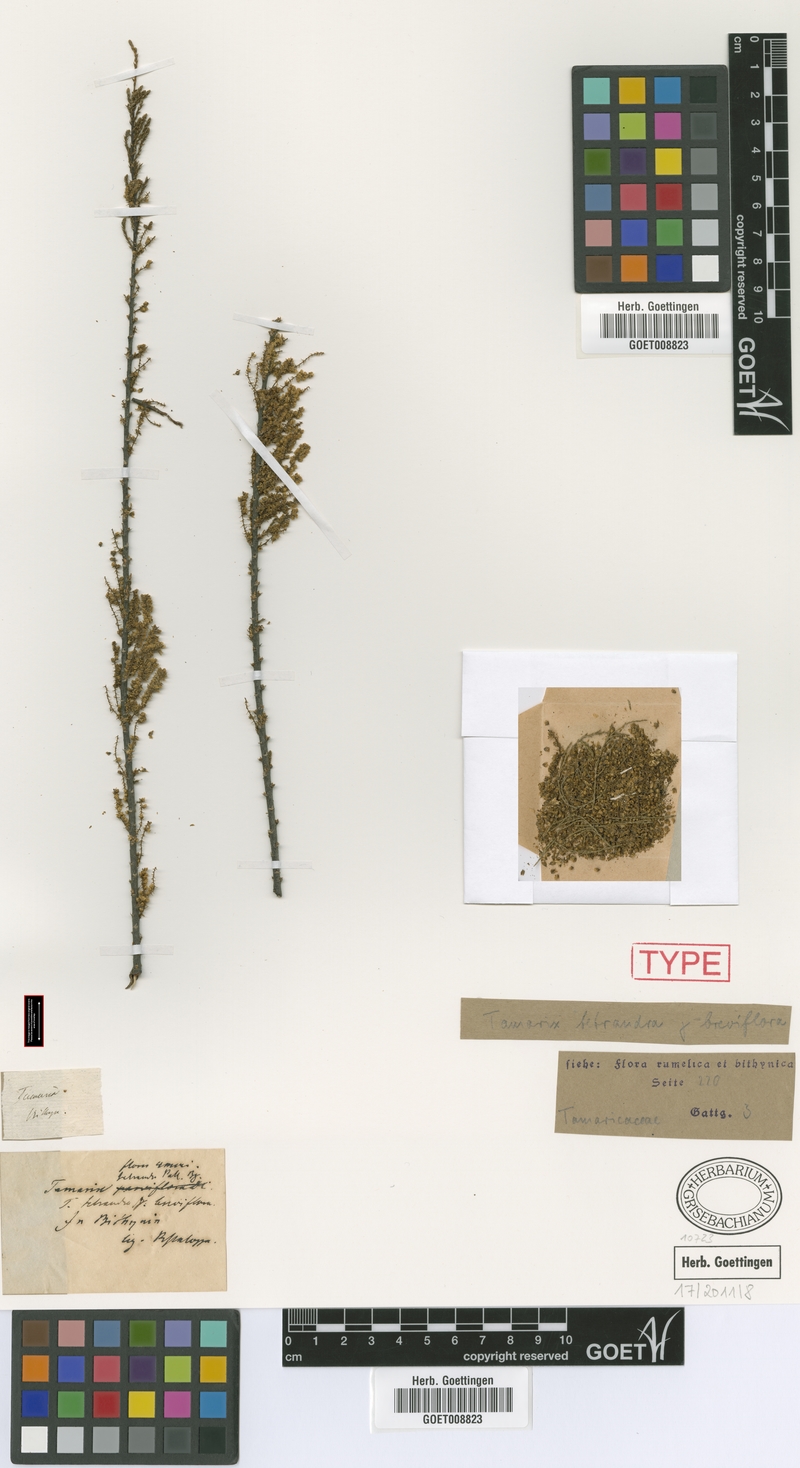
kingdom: Plantae
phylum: Tracheophyta
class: Magnoliopsida
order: Caryophyllales
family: Tamaricaceae
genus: Tamarix
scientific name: Tamarix tetrandra
